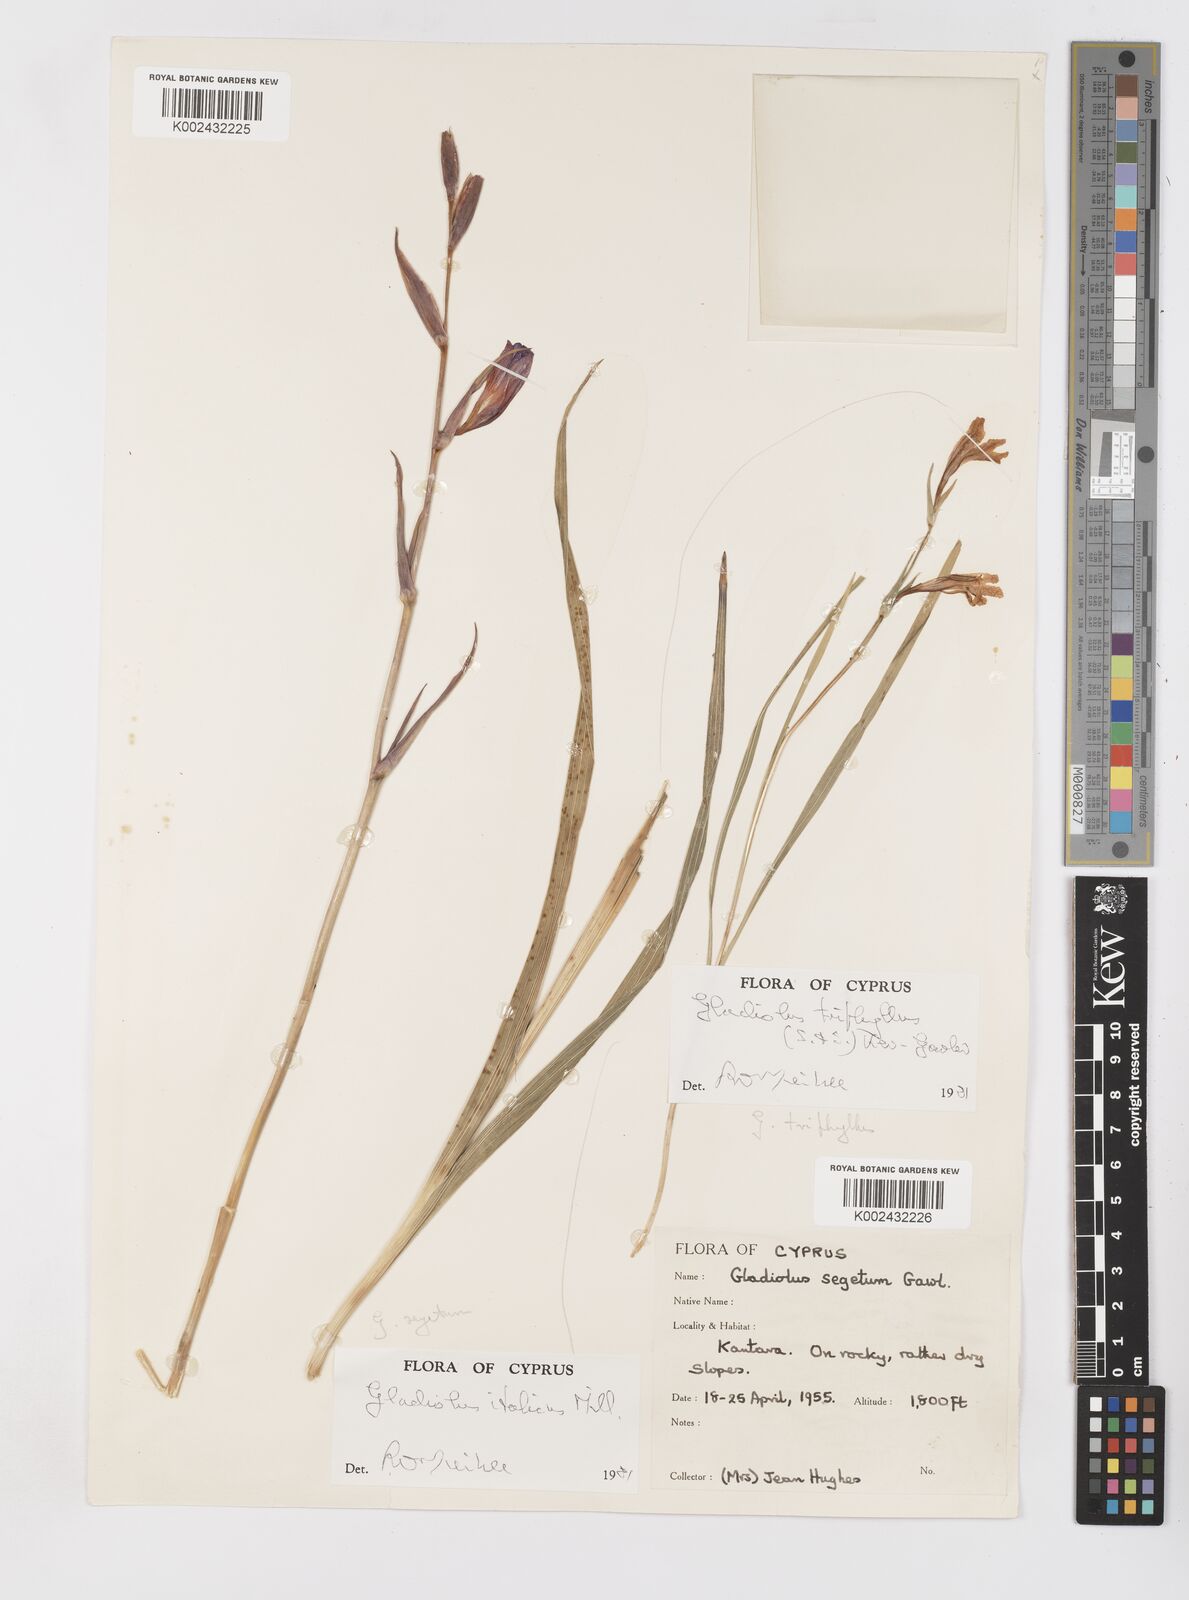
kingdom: Plantae
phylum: Tracheophyta
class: Liliopsida
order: Asparagales
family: Iridaceae
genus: Gladiolus
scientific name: Gladiolus italicus
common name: Field gladiolus
